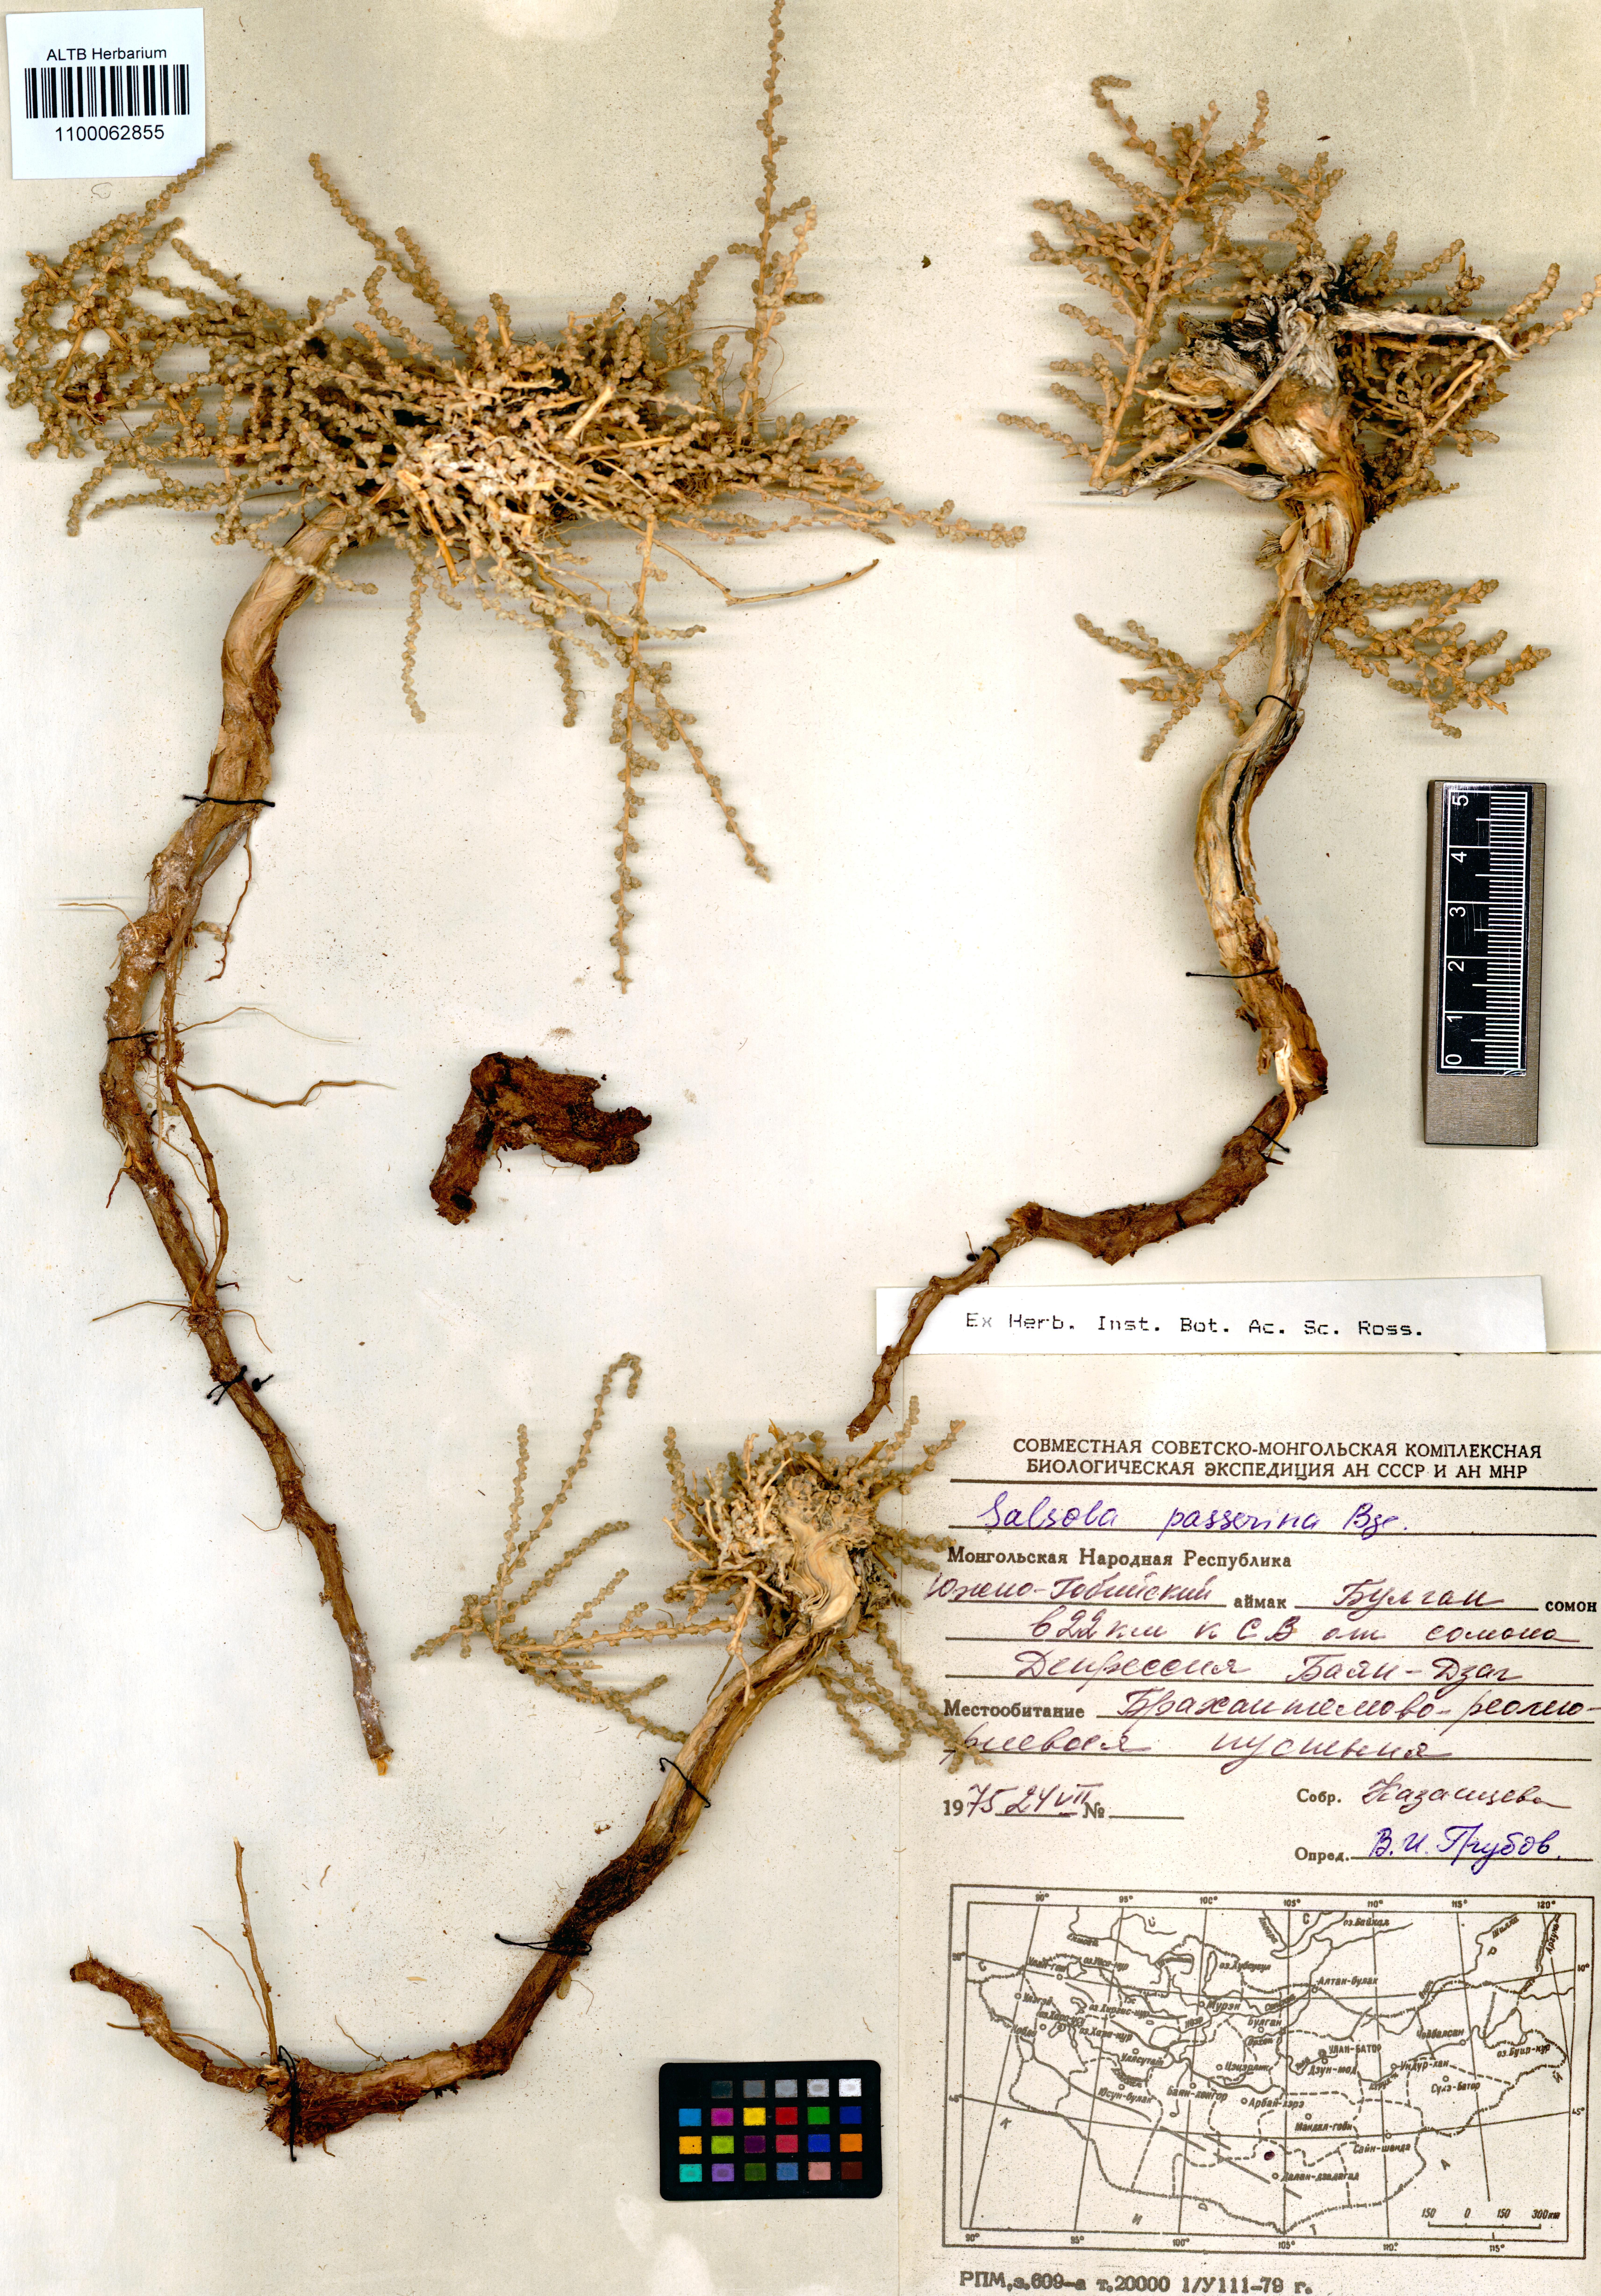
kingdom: Plantae
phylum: Tracheophyta
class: Magnoliopsida
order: Caryophyllales
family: Amaranthaceae
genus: Caroxylon
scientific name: Caroxylon passerinum
